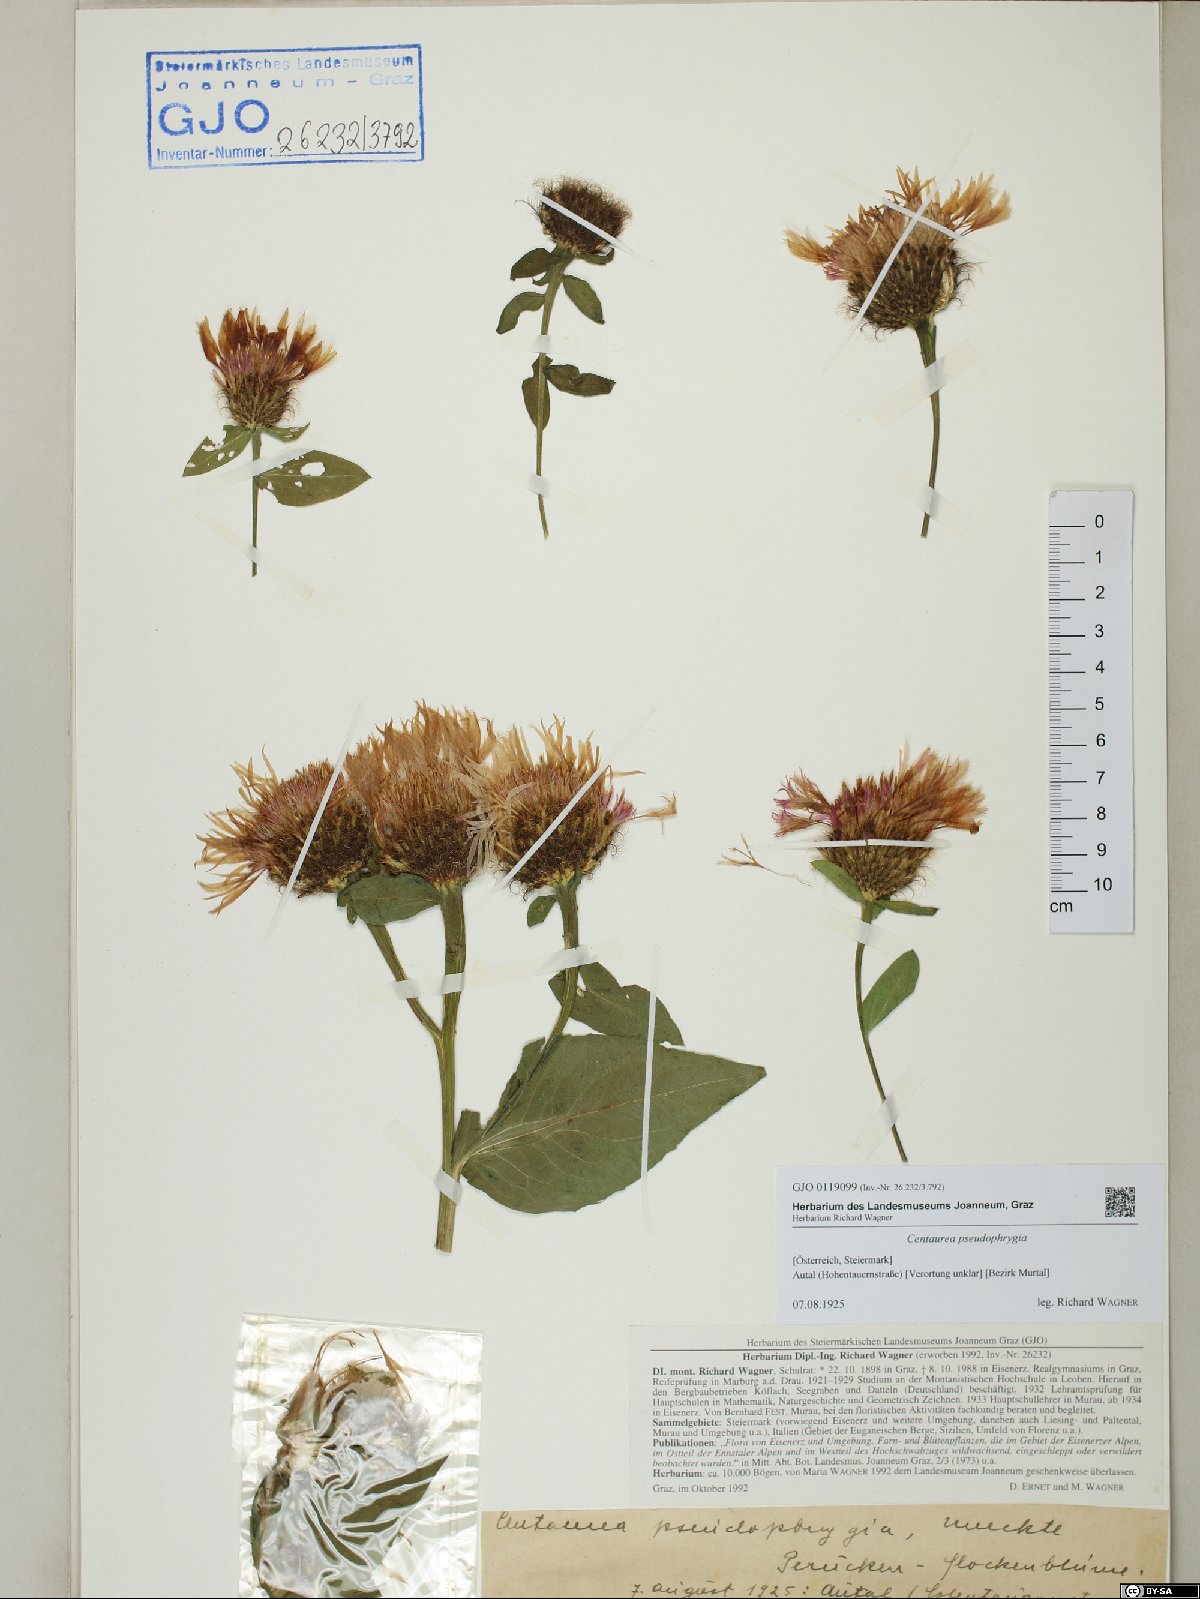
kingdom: Plantae
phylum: Tracheophyta
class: Magnoliopsida
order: Asterales
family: Asteraceae
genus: Centaurea
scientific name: Centaurea pseudophrygia
